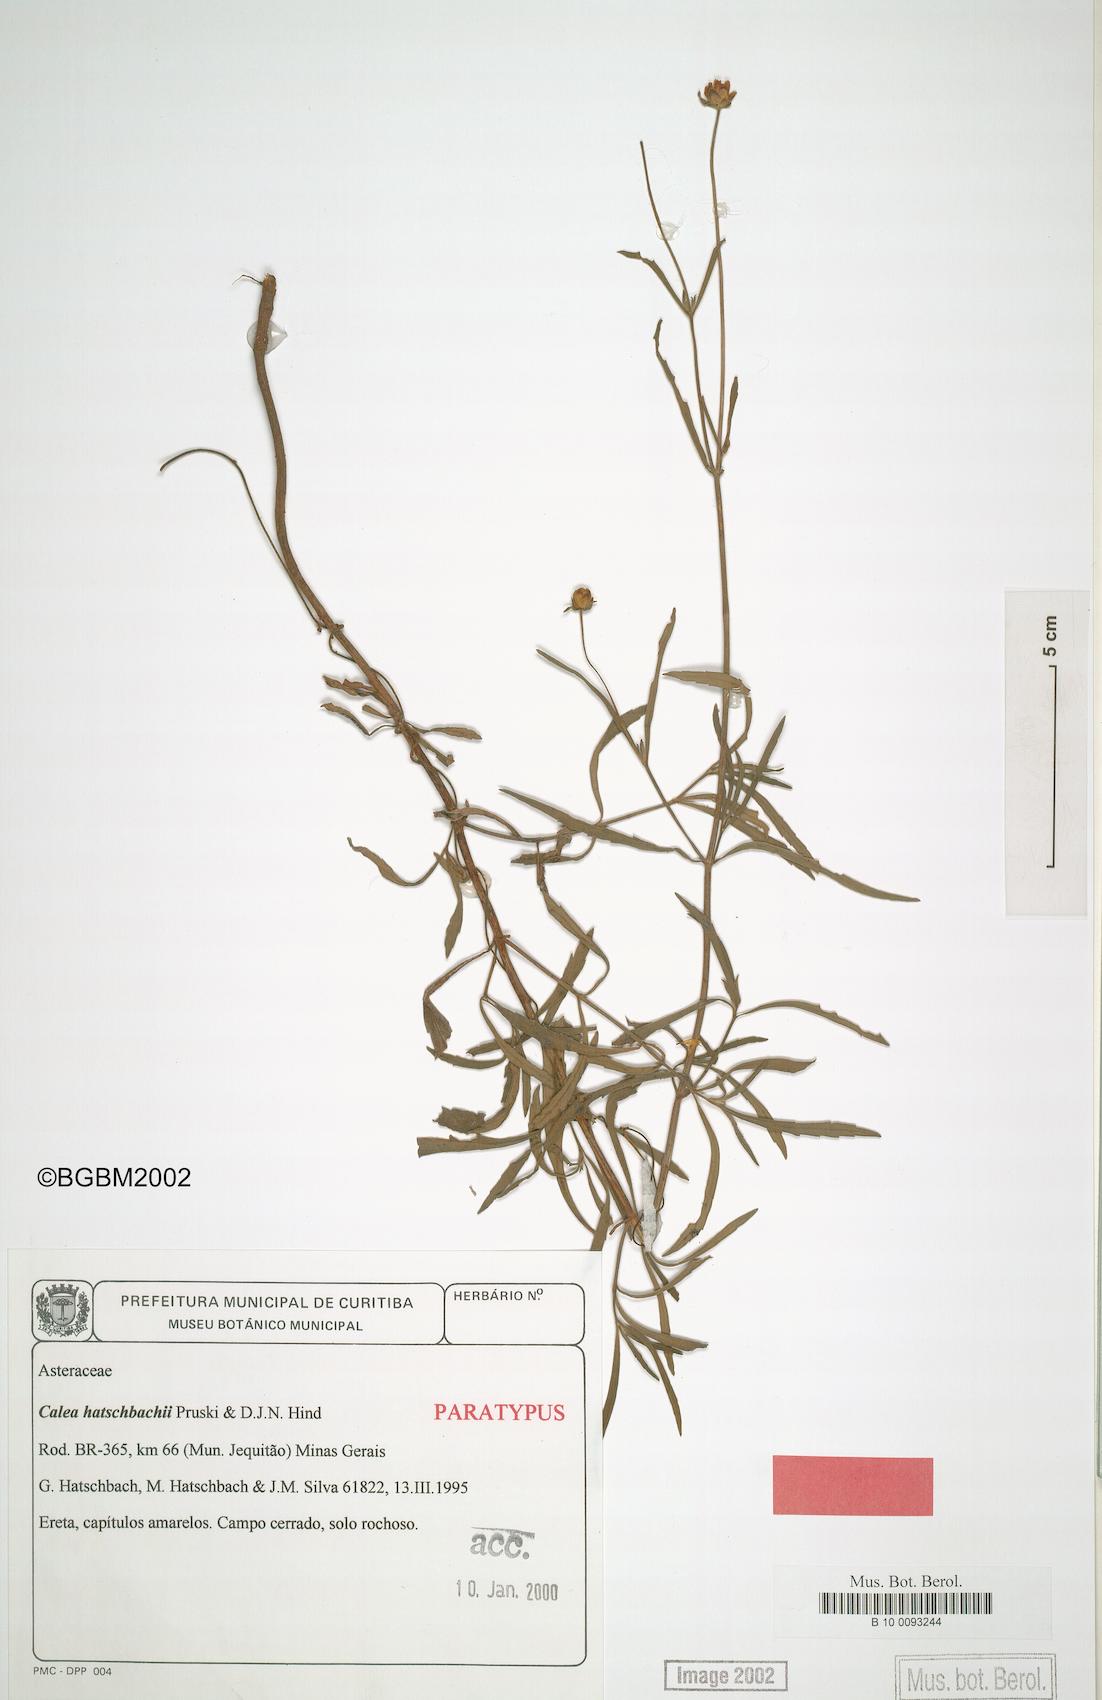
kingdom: Plantae
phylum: Tracheophyta
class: Magnoliopsida
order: Asterales
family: Asteraceae
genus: Calea
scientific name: Calea hatschbachii
